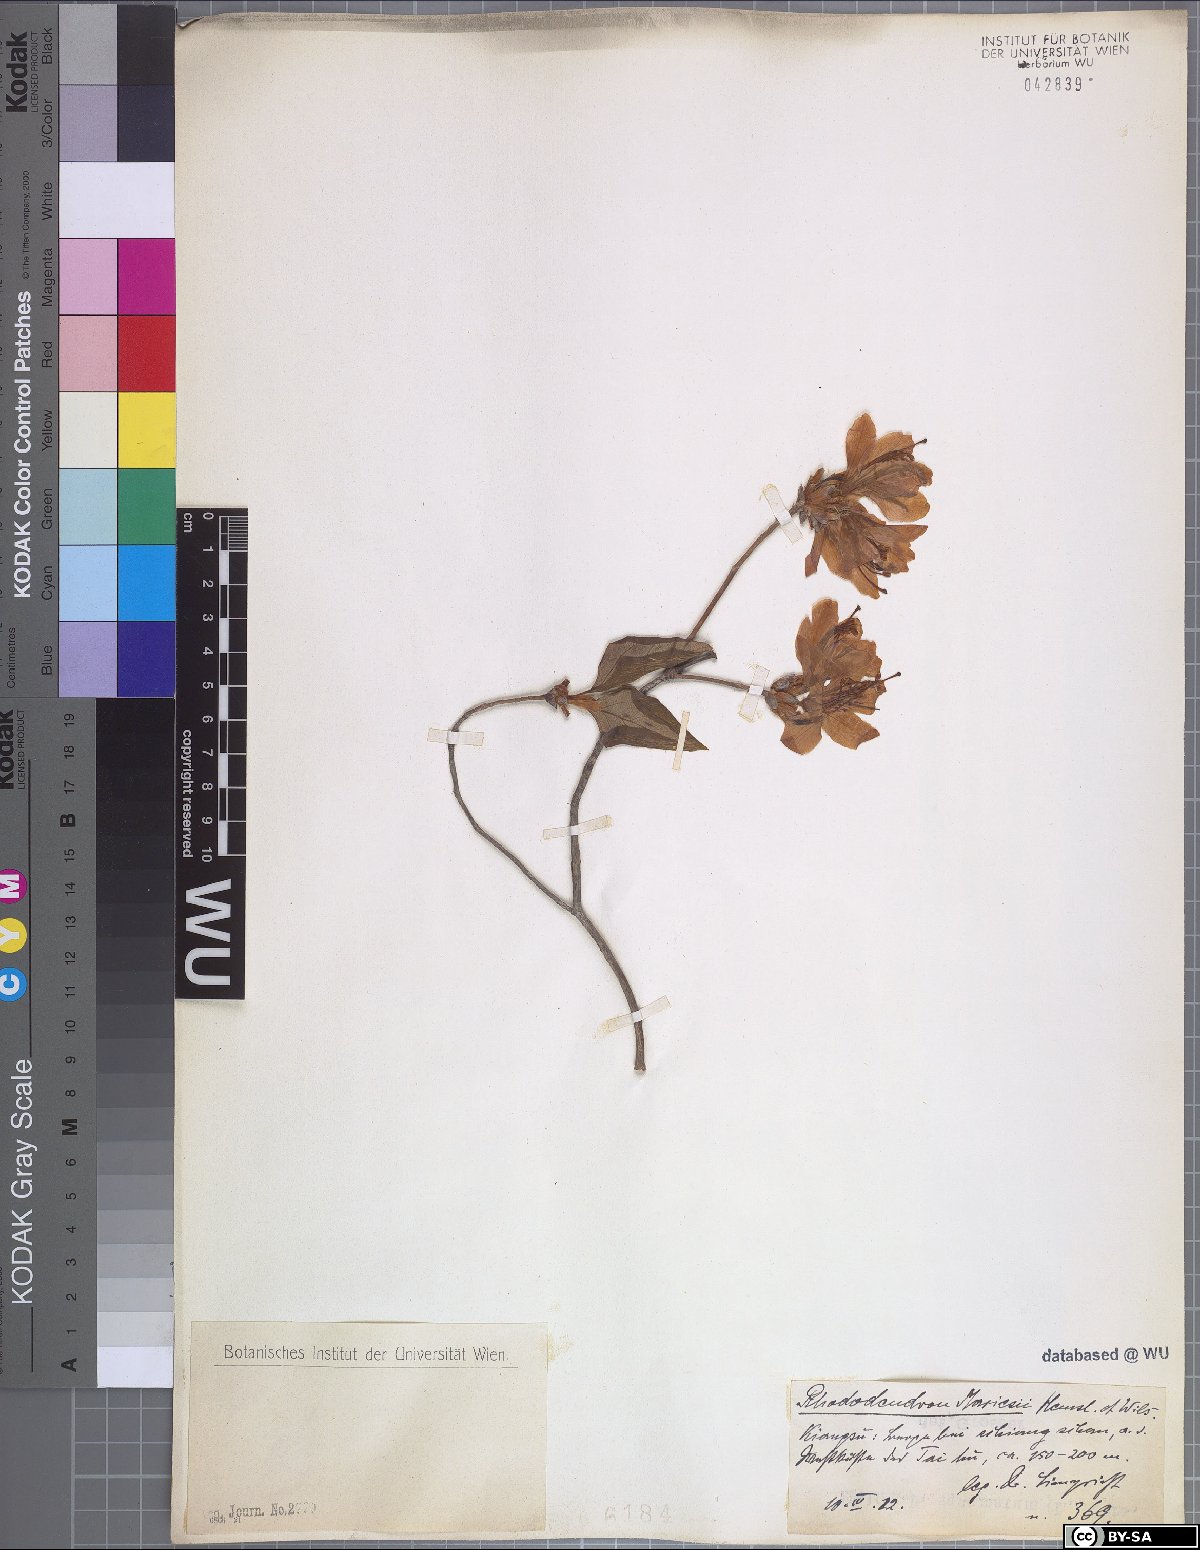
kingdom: Plantae
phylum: Tracheophyta
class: Magnoliopsida
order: Ericales
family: Ericaceae
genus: Rhododendron
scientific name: Rhododendron mariesii
